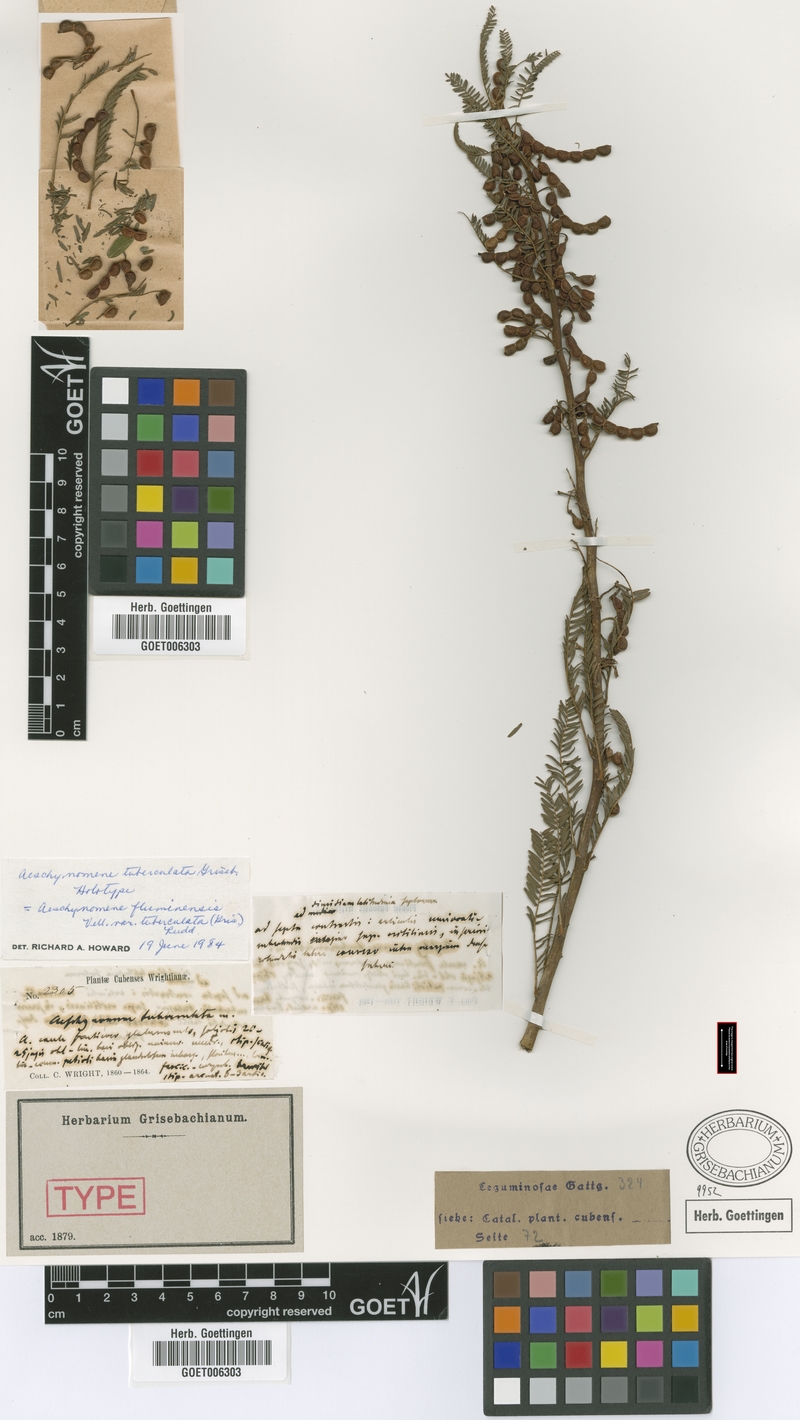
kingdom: Plantae
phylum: Tracheophyta
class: Magnoliopsida
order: Fabales
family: Fabaceae
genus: Aeschynomene
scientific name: Aeschynomene fluminensis
